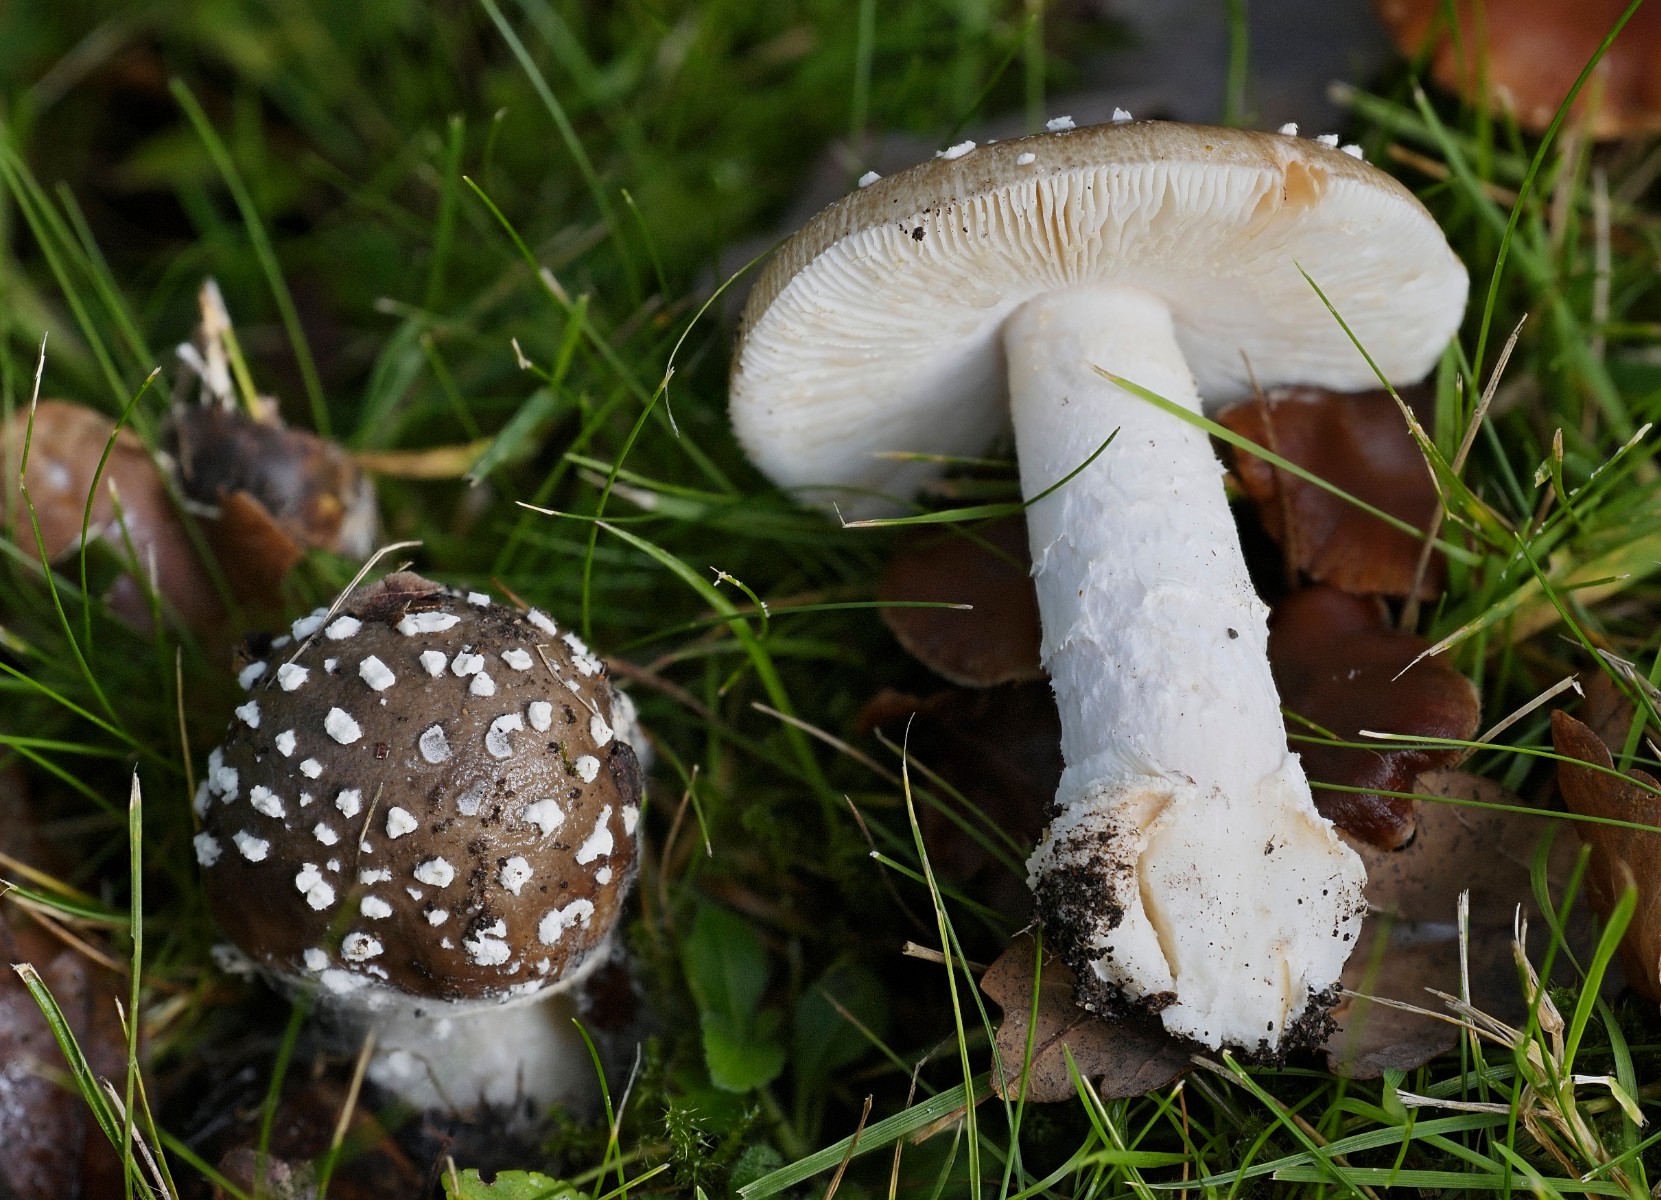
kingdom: Fungi
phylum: Basidiomycota
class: Agaricomycetes
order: Agaricales
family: Amanitaceae
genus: Amanita
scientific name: Amanita pantherina
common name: panter-fluesvamp
